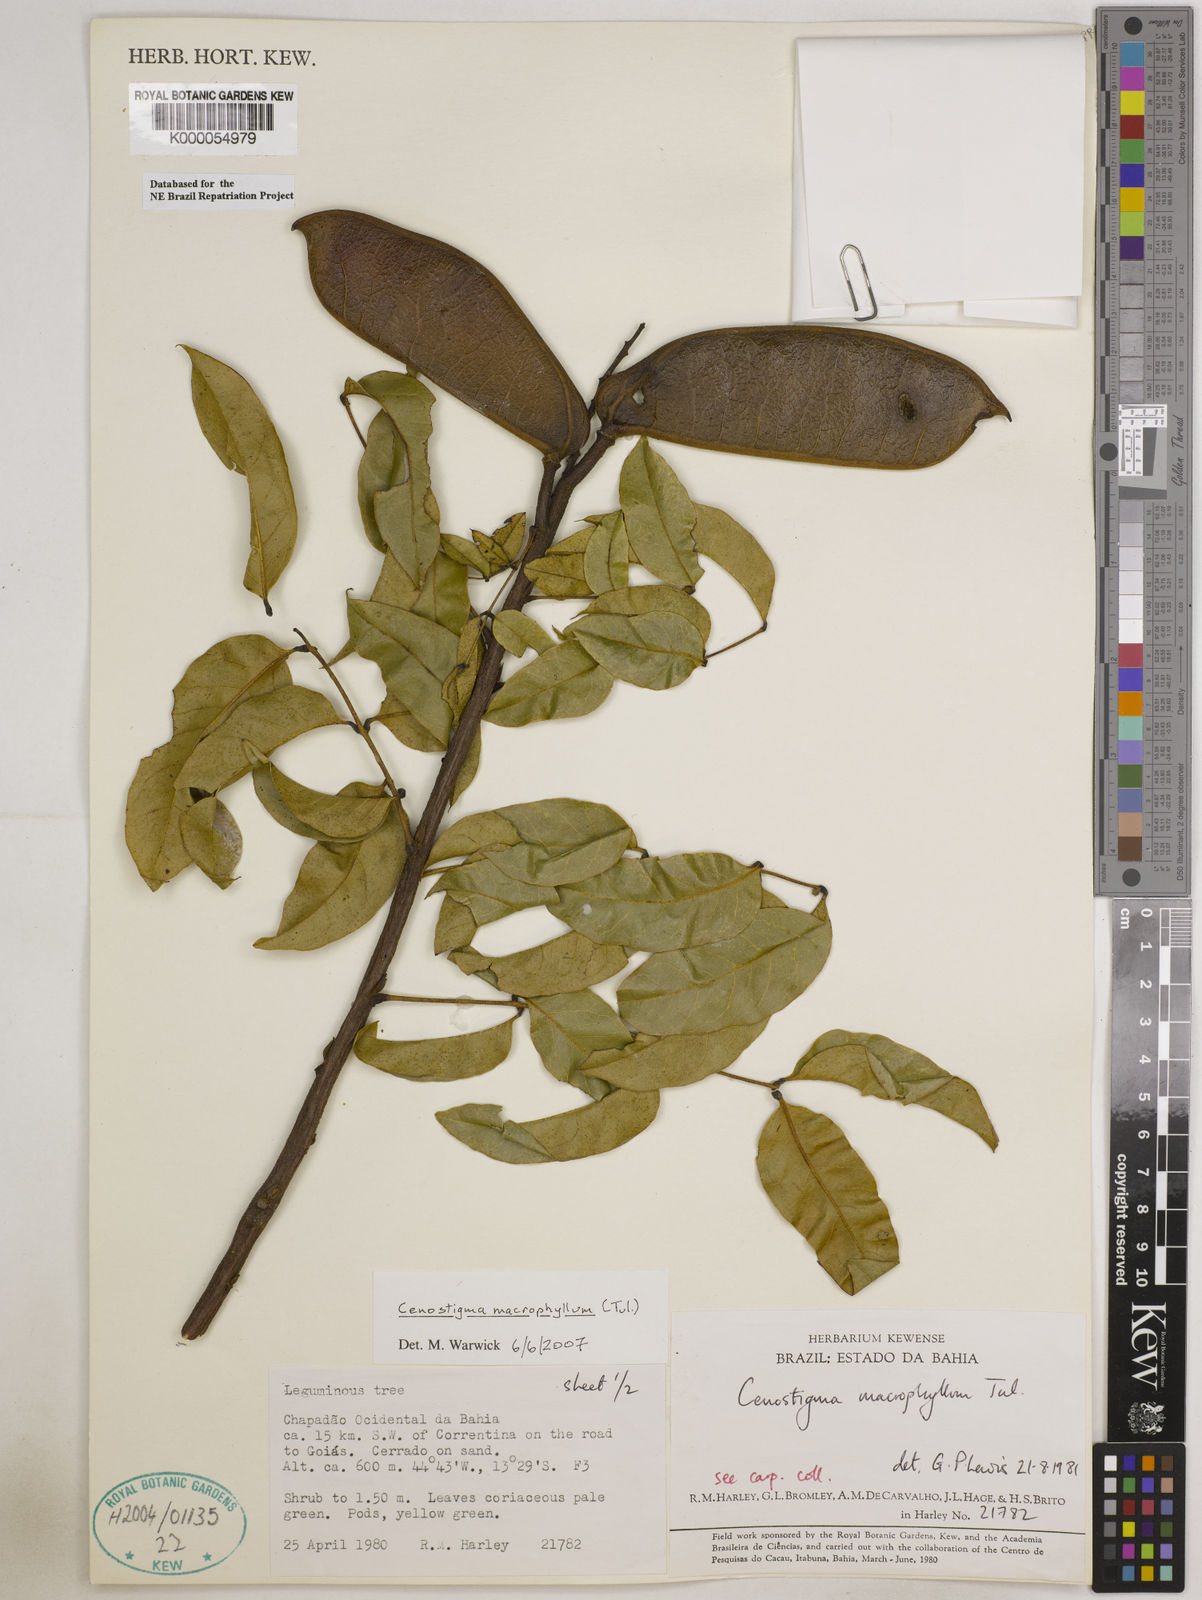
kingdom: Plantae
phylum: Tracheophyta
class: Magnoliopsida
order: Fabales
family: Fabaceae
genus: Cenostigma
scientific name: Cenostigma macrophyllum
